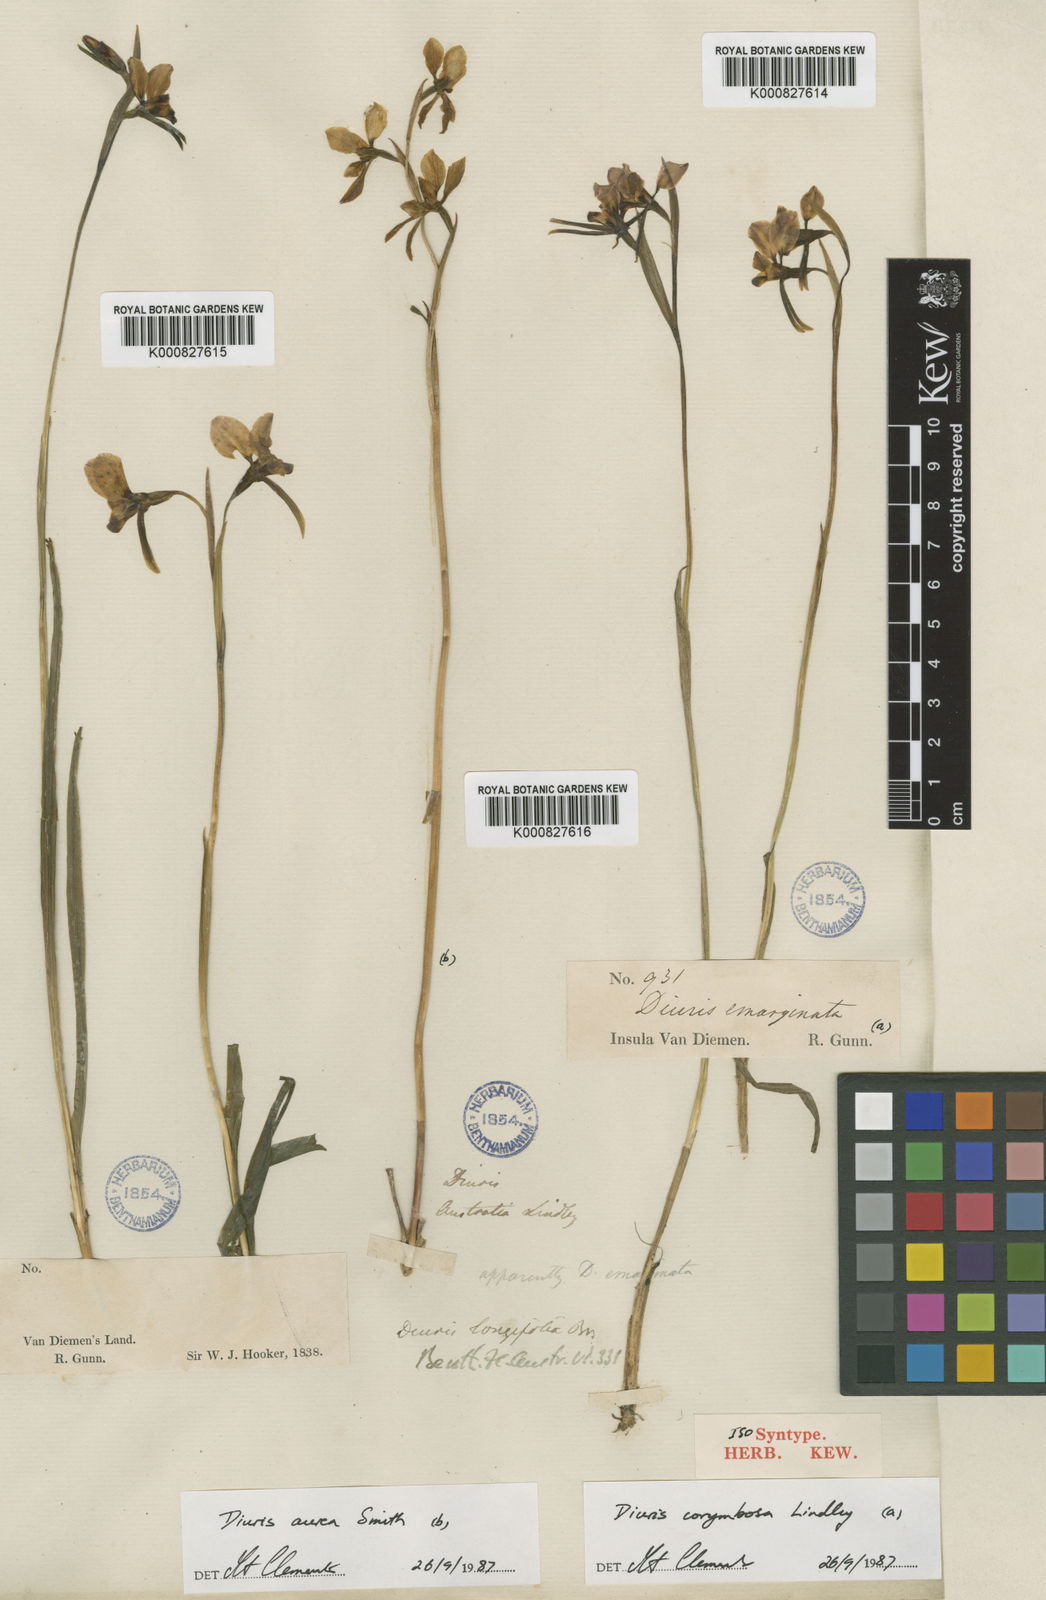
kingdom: Plantae
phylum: Tracheophyta
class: Liliopsida
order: Asparagales
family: Orchidaceae
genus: Diuris
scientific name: Diuris longifolia
